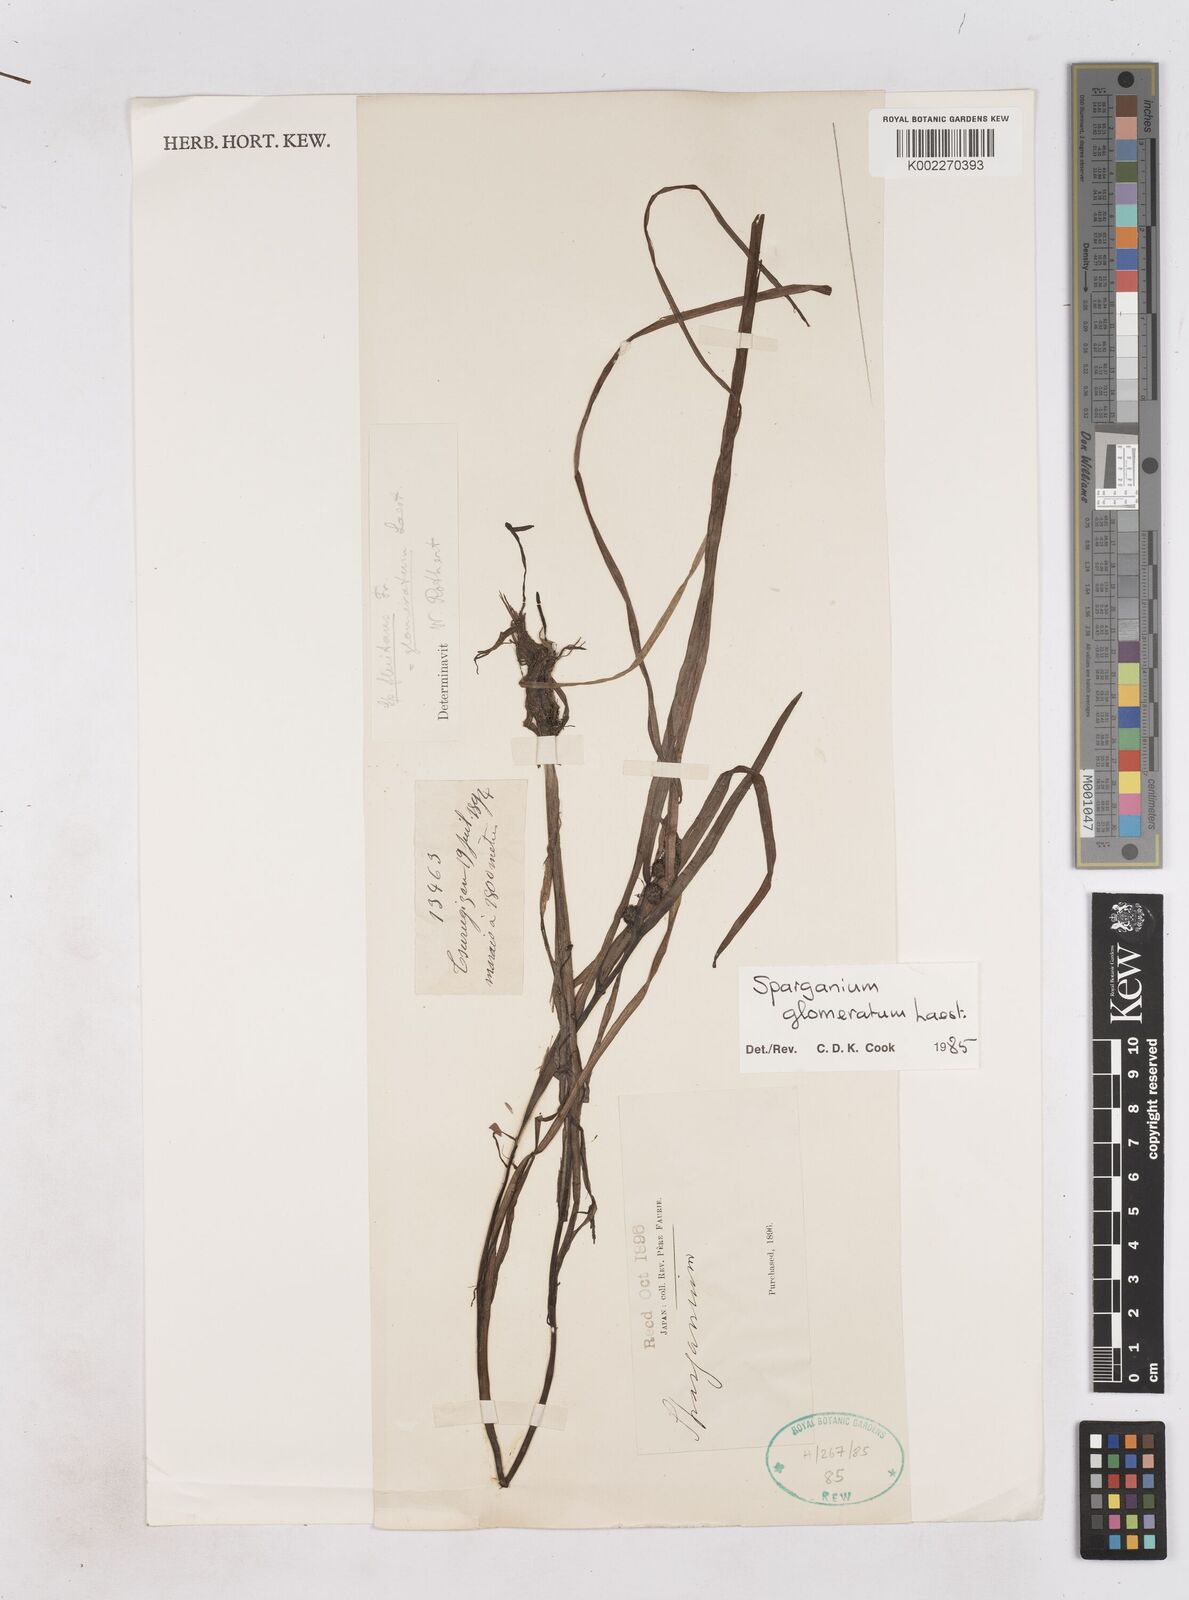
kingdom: Plantae
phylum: Tracheophyta
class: Liliopsida
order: Poales
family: Typhaceae
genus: Sparganium
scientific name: Sparganium glomeratum
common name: Clustered burreed
